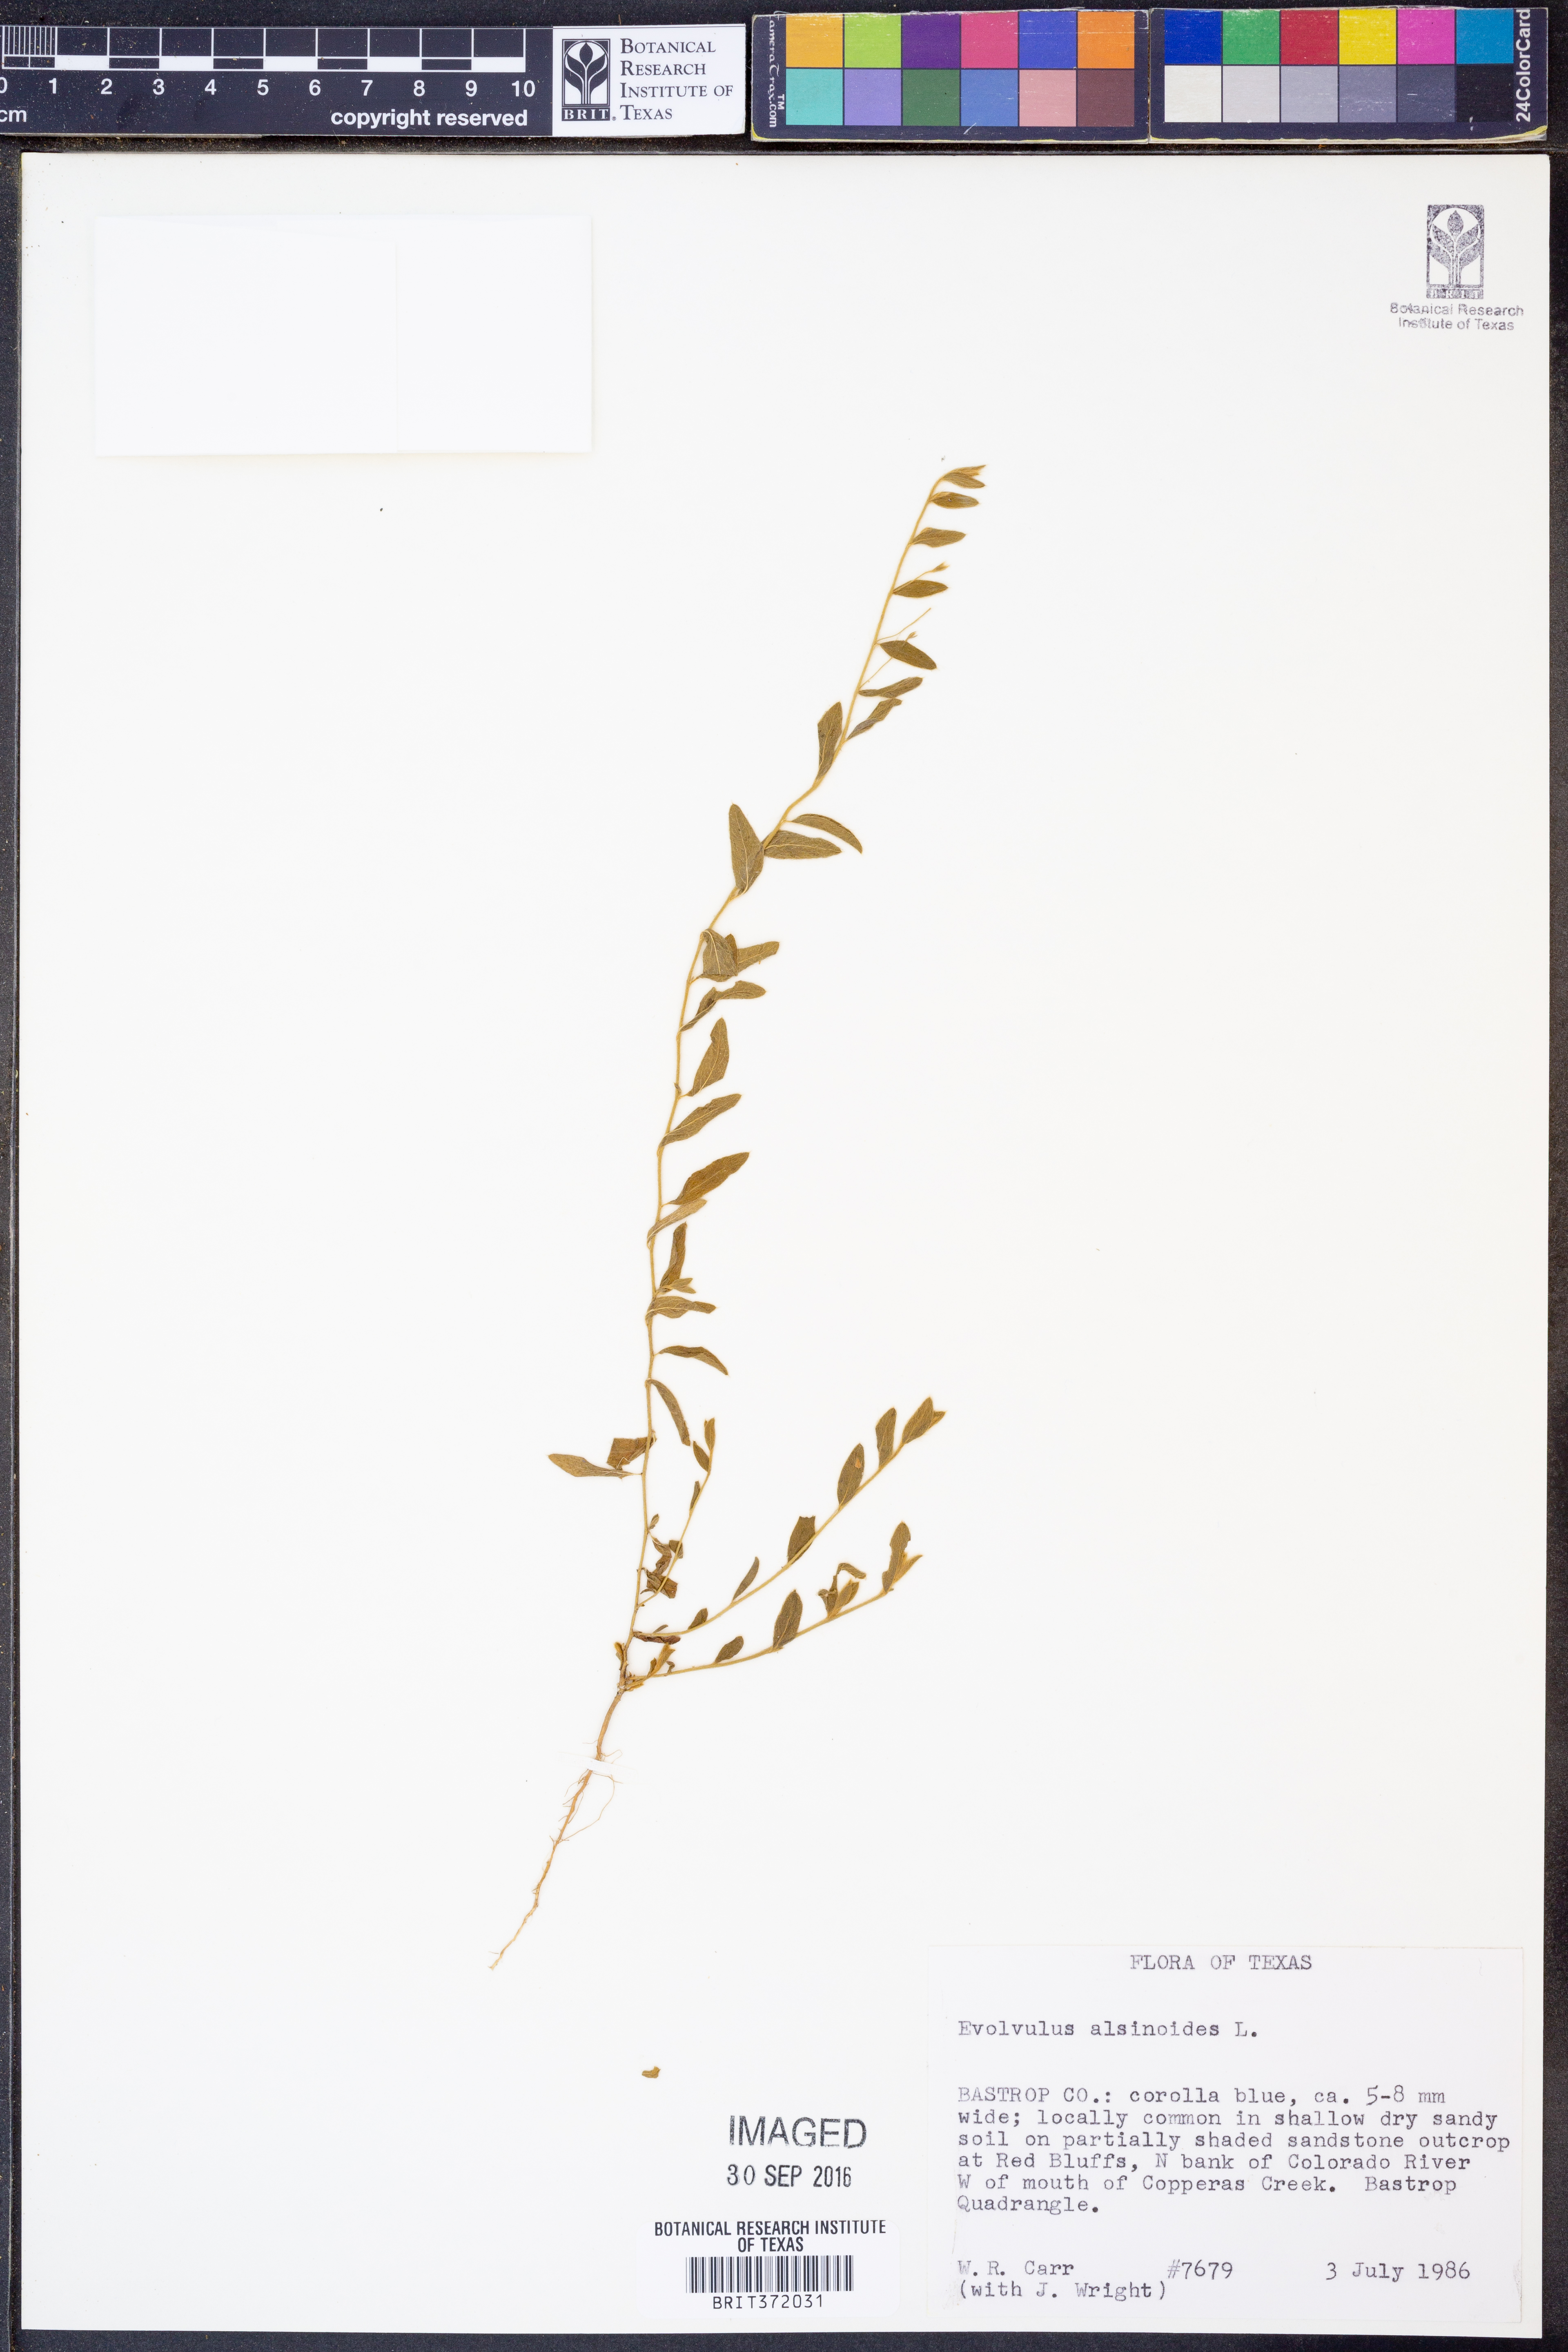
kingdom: Plantae
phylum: Tracheophyta
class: Magnoliopsida
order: Solanales
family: Convolvulaceae
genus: Evolvulus
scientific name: Evolvulus alsinoides
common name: Slender dwarf morning-glory
